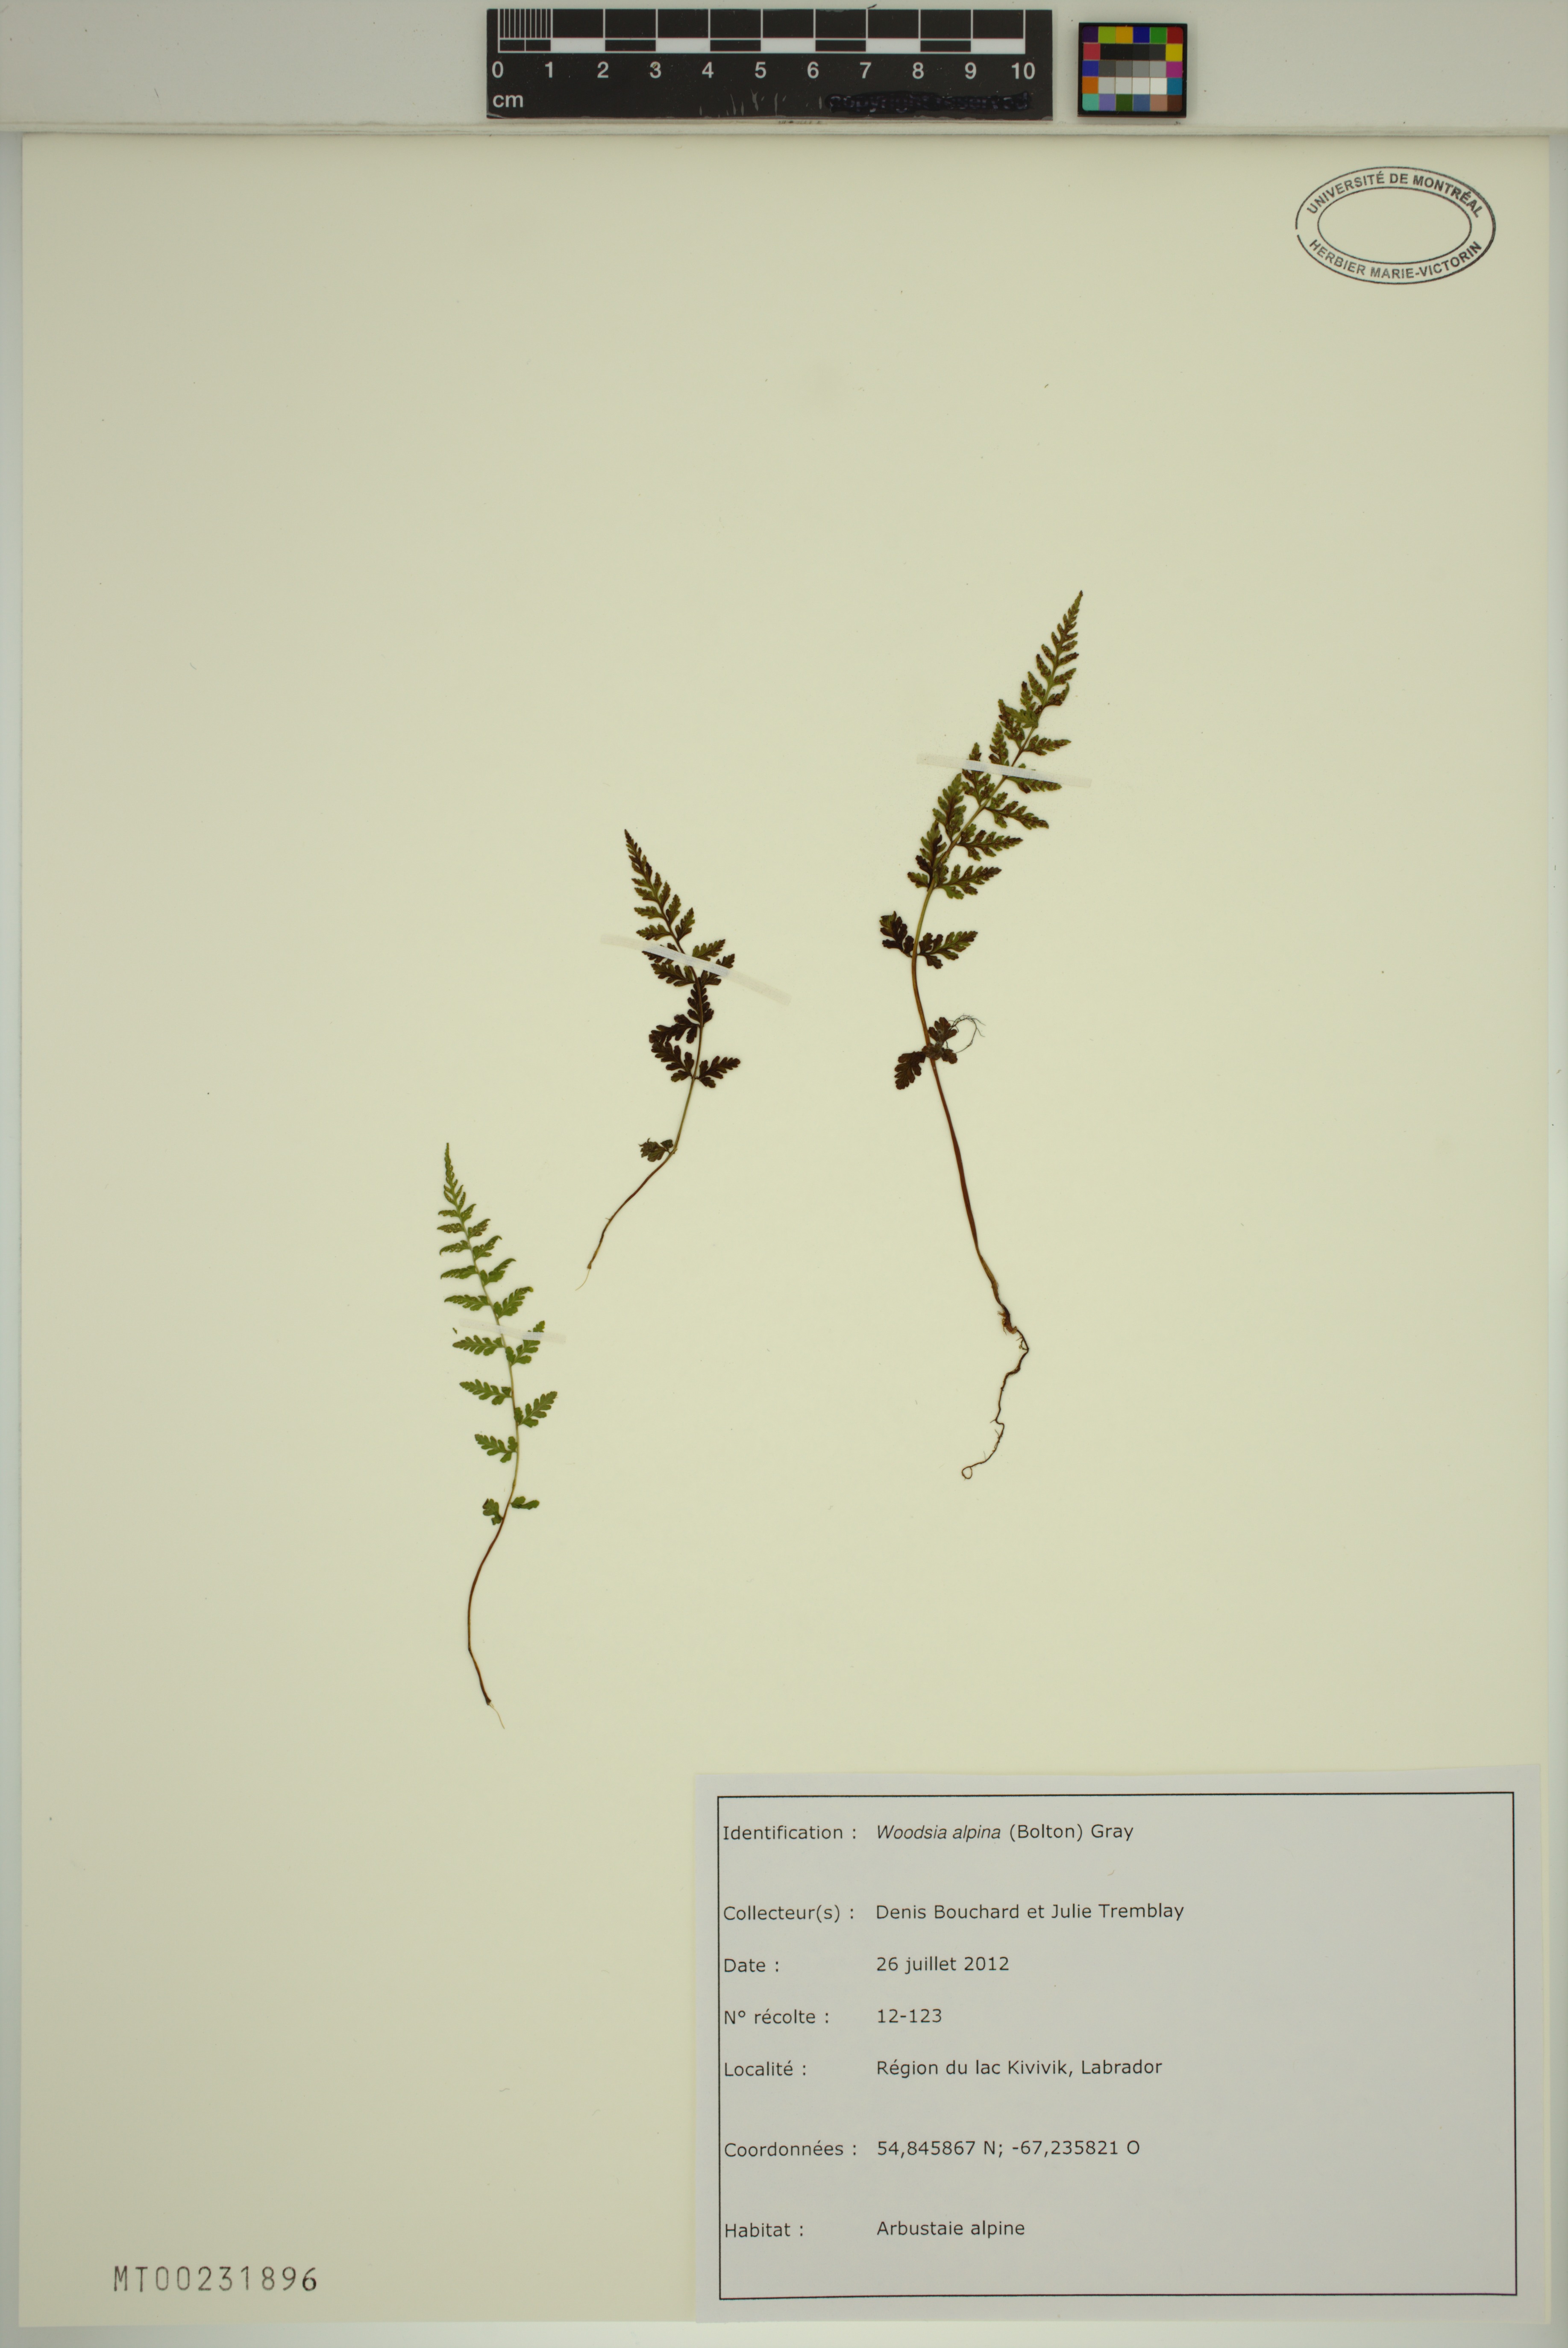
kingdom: Plantae
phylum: Tracheophyta
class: Polypodiopsida
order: Polypodiales
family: Woodsiaceae
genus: Woodsia
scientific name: Woodsia alpina
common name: Alpine woodsia
